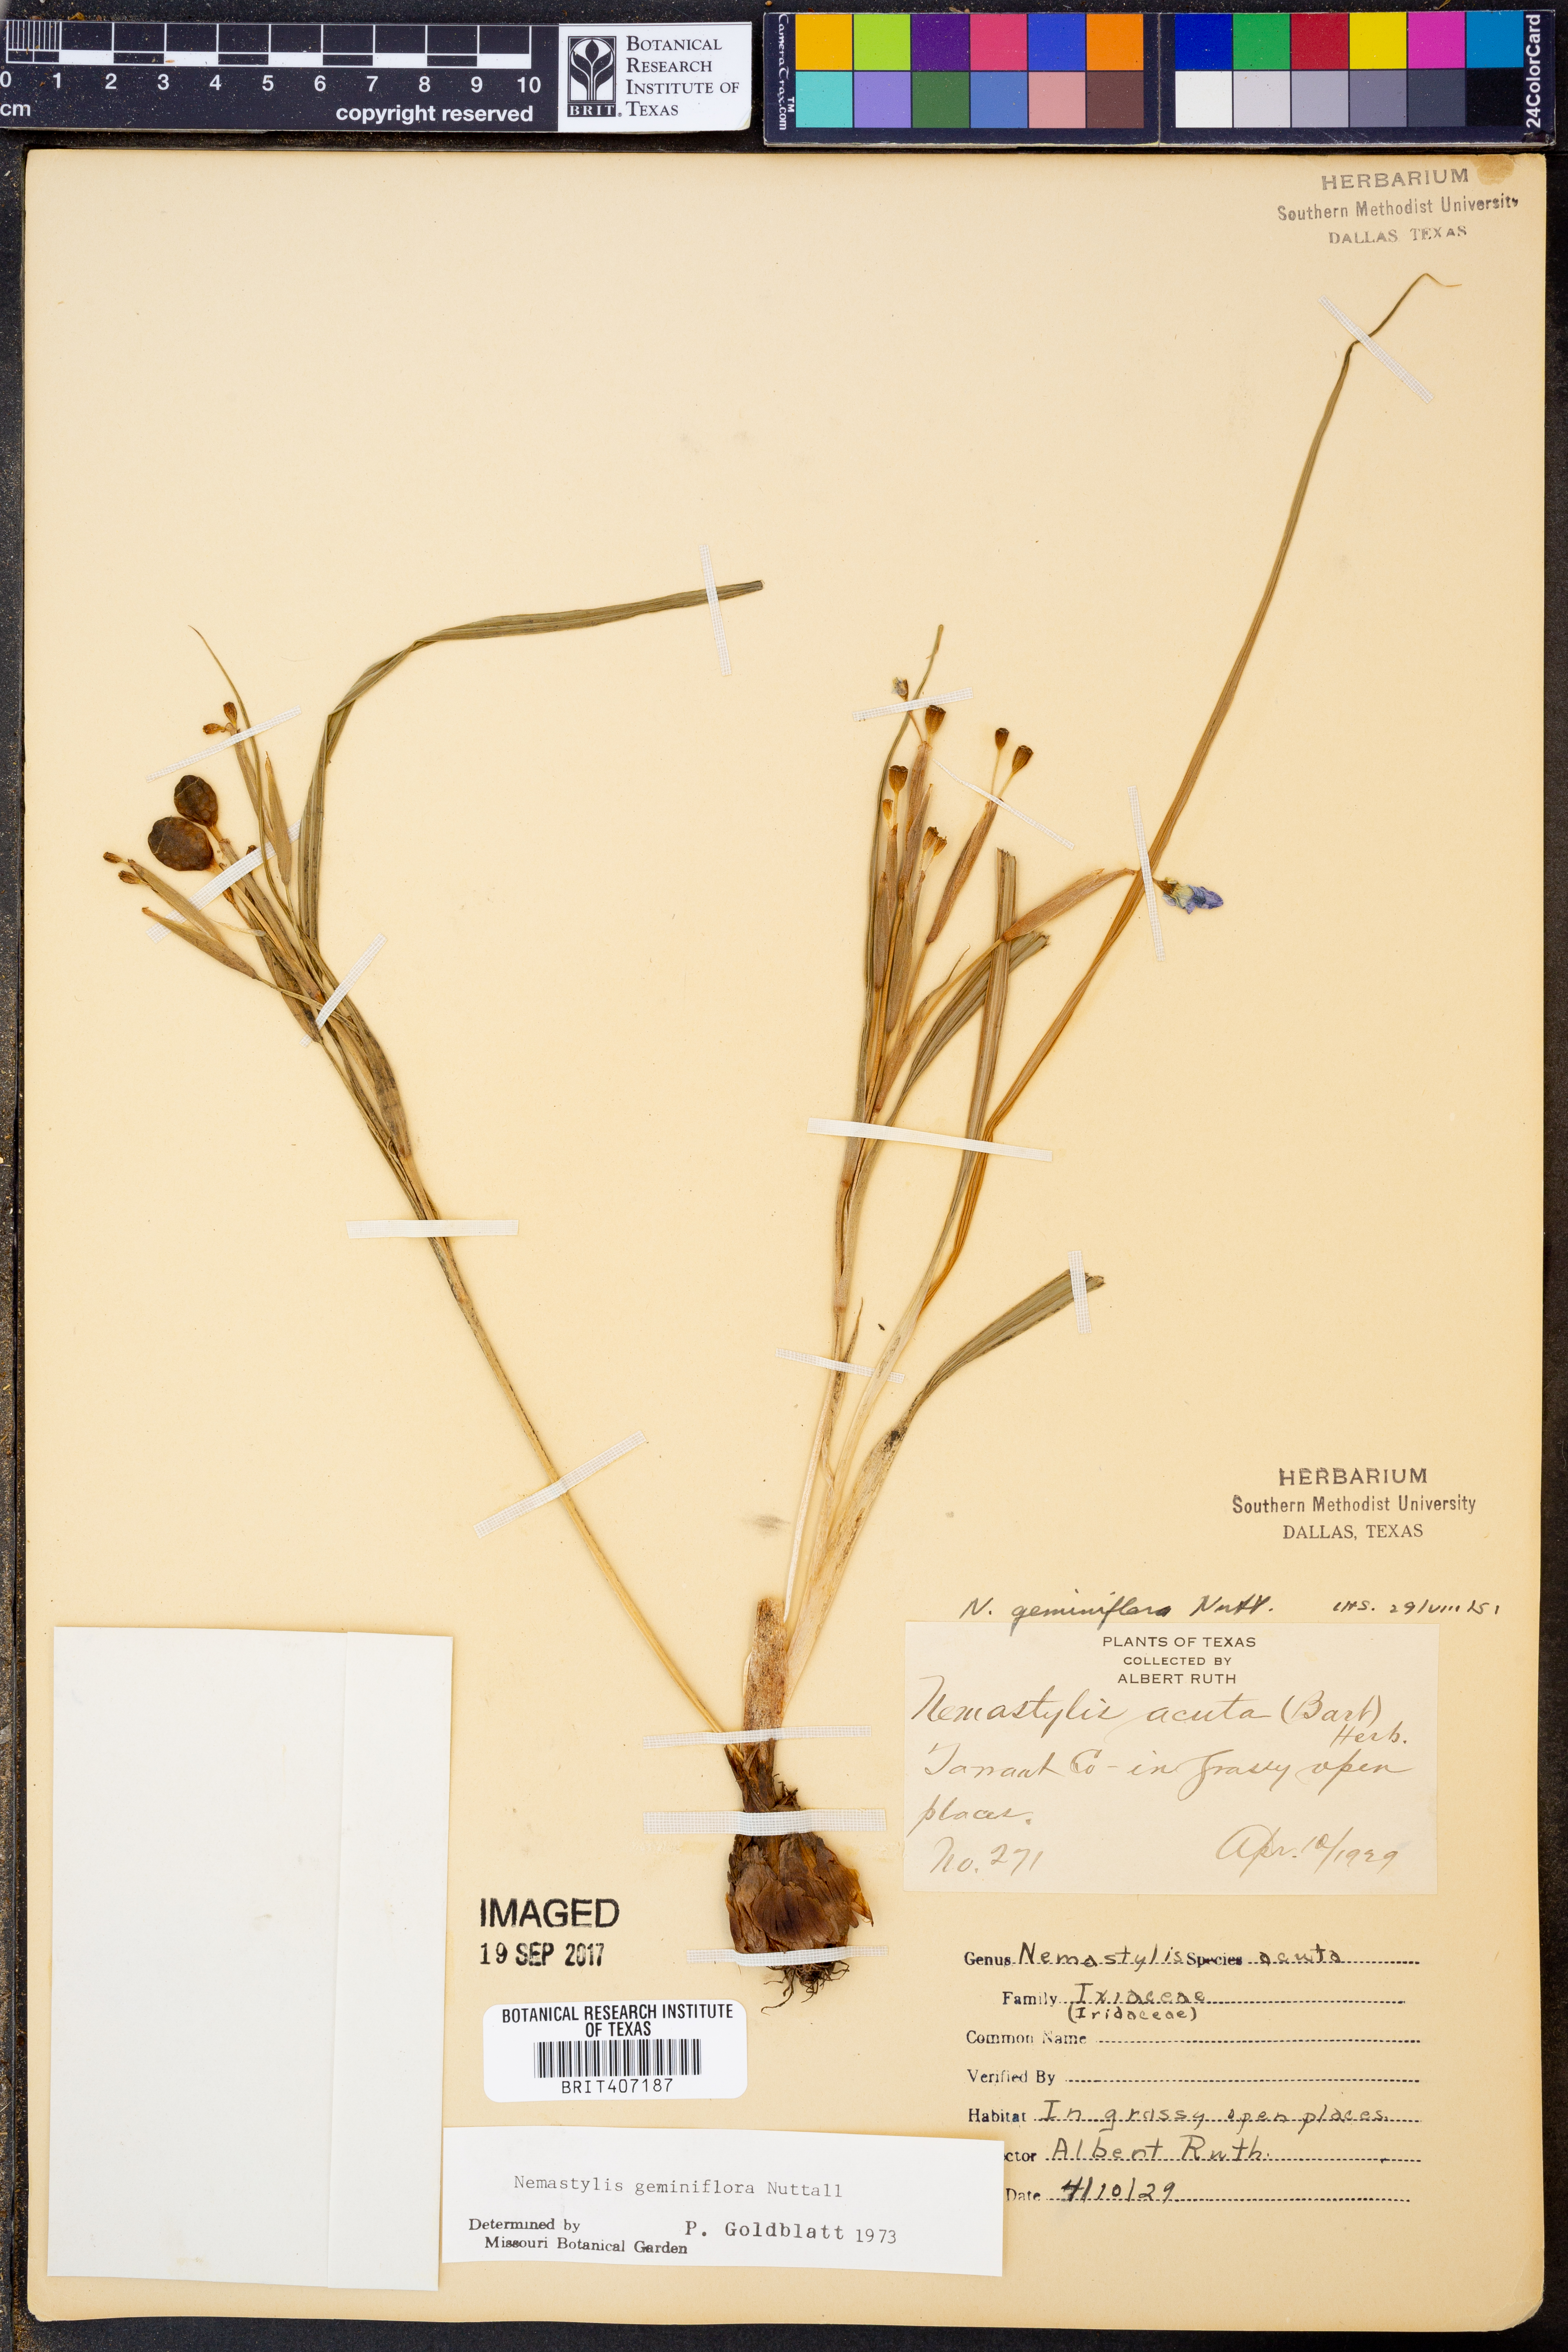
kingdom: Plantae
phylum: Tracheophyta
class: Liliopsida
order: Asparagales
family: Iridaceae
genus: Nemastylis
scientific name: Nemastylis geminiflora
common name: Prairie celestial
